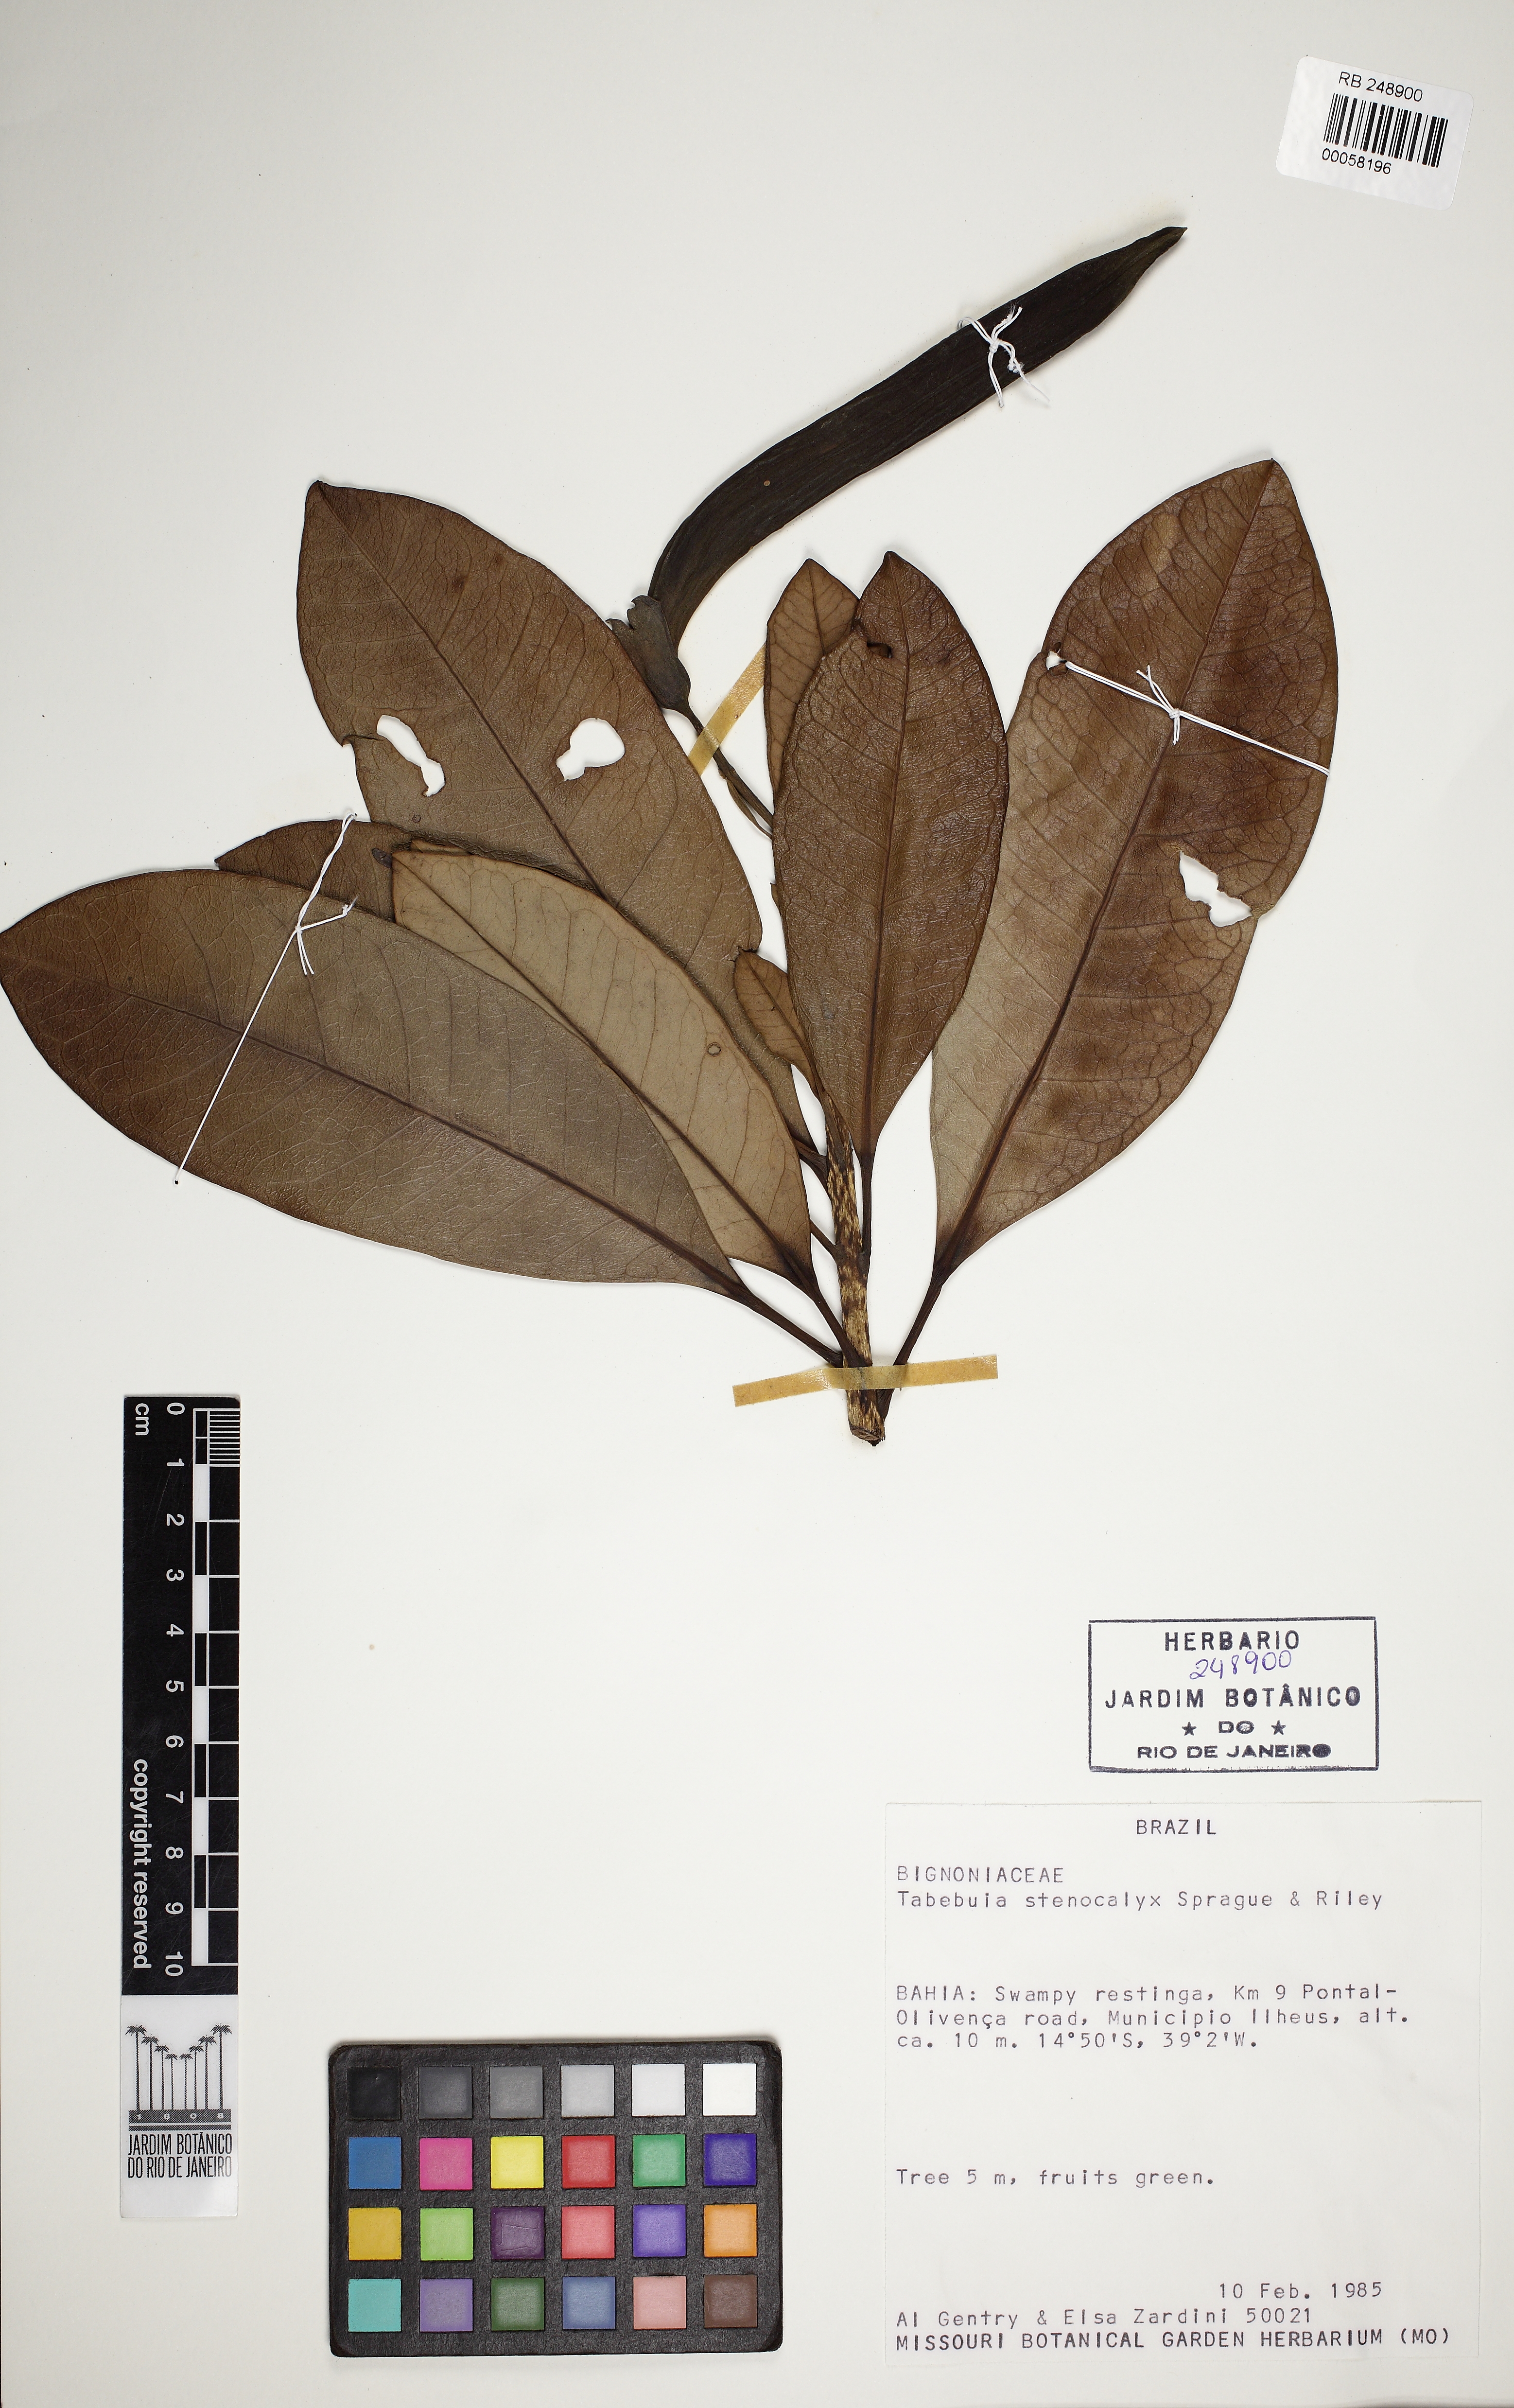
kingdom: Plantae
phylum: Tracheophyta
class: Magnoliopsida
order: Lamiales
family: Bignoniaceae
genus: Tabebuia
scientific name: Tabebuia stenocalyx
